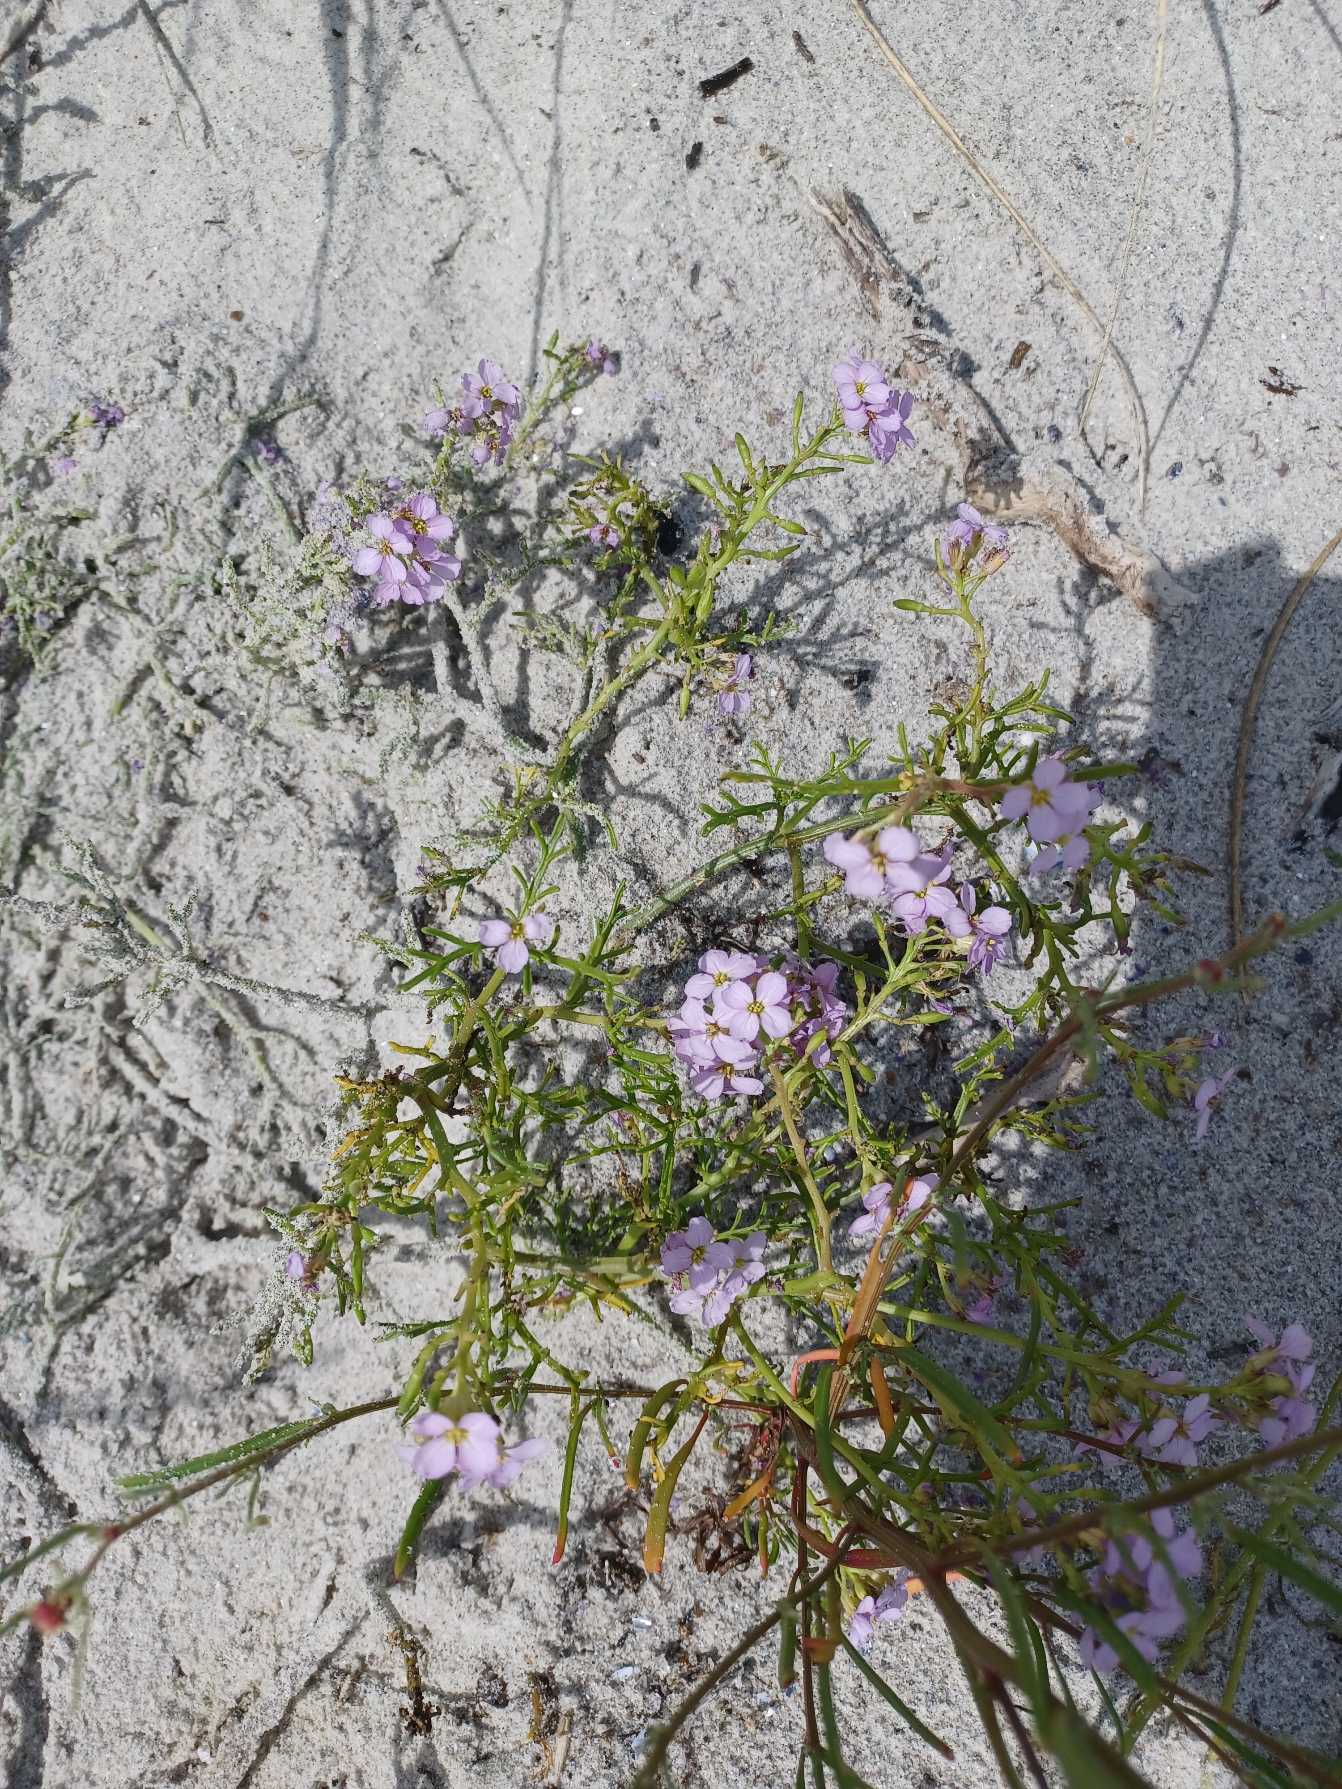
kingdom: Plantae
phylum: Tracheophyta
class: Magnoliopsida
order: Brassicales
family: Brassicaceae
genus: Cakile
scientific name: Cakile maritima
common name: Strandsennep
